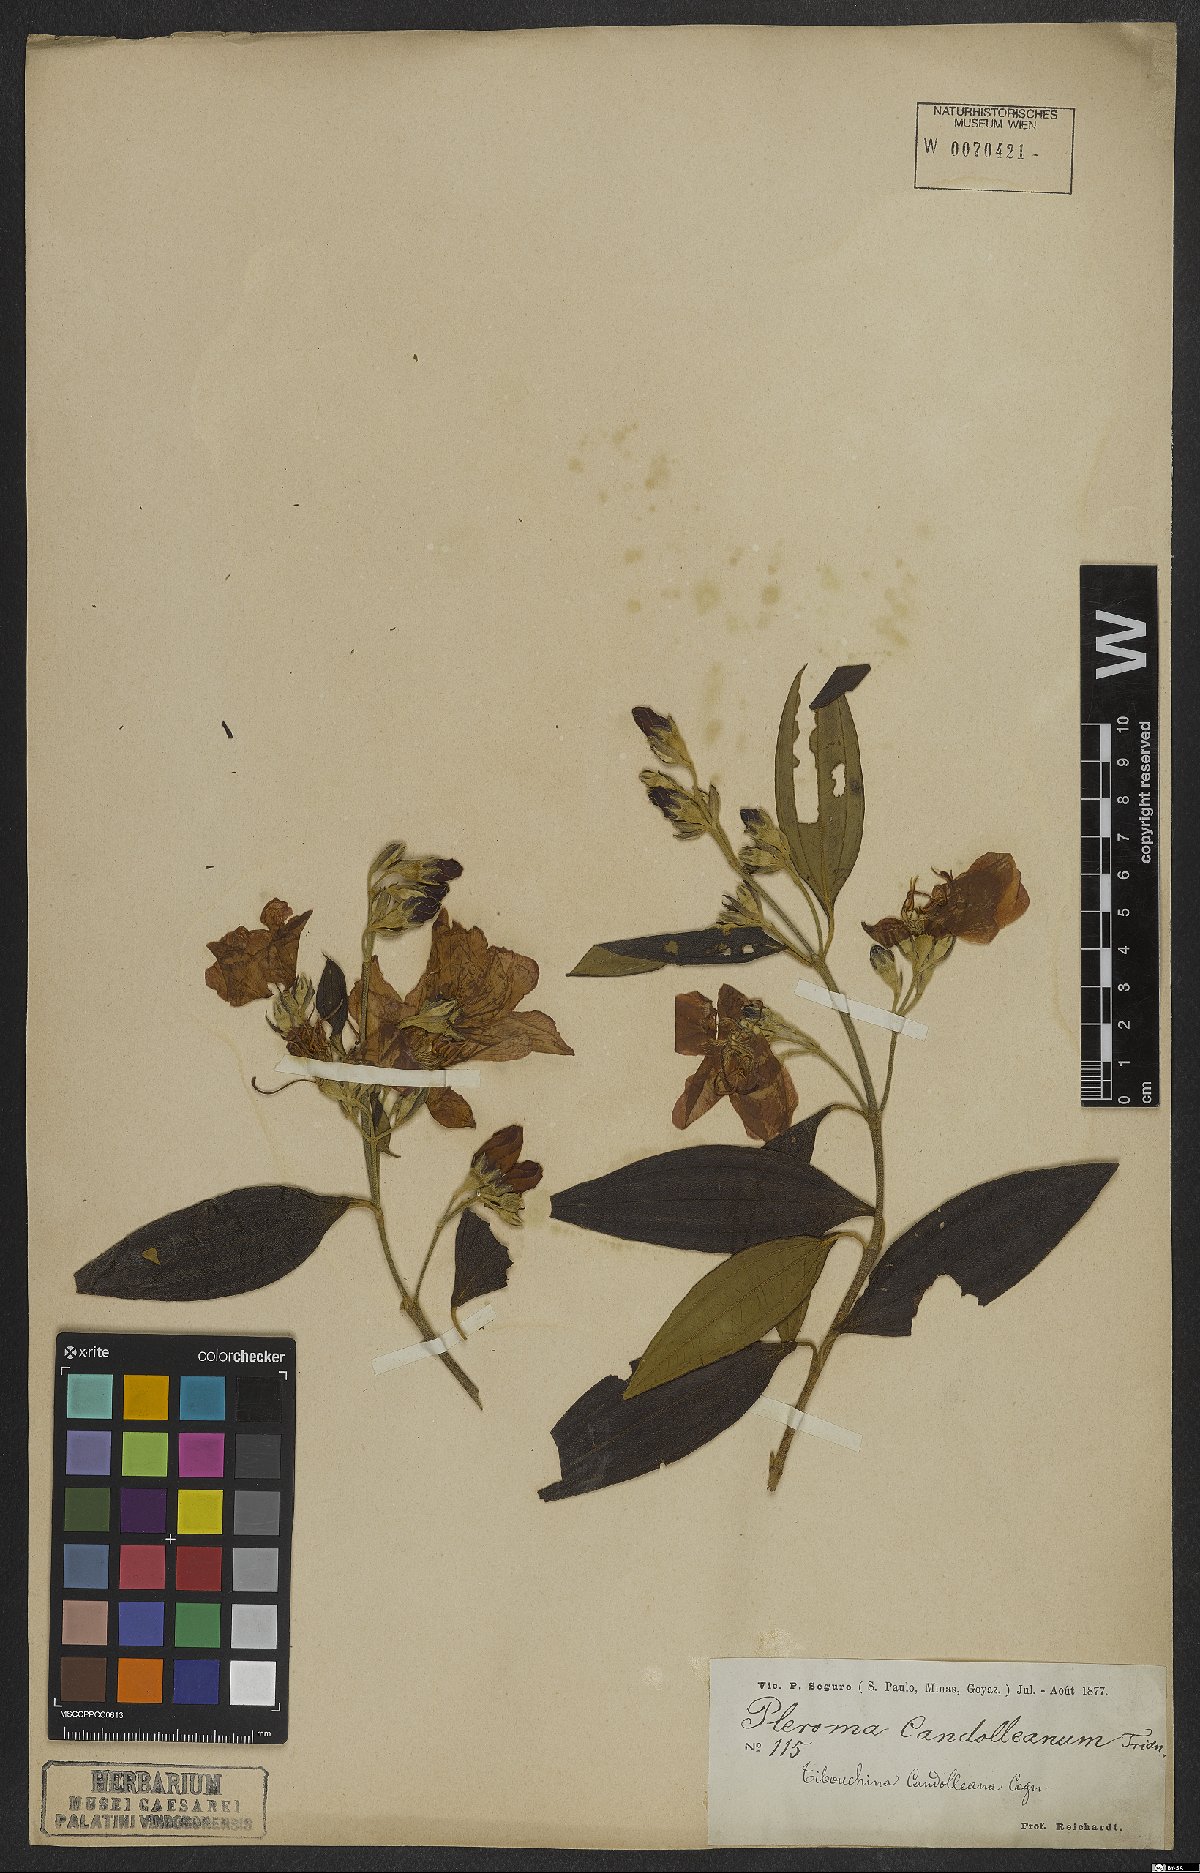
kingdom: Plantae
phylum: Tracheophyta
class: Magnoliopsida
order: Myrtales
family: Melastomataceae
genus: Pleroma
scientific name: Pleroma candolleanum
